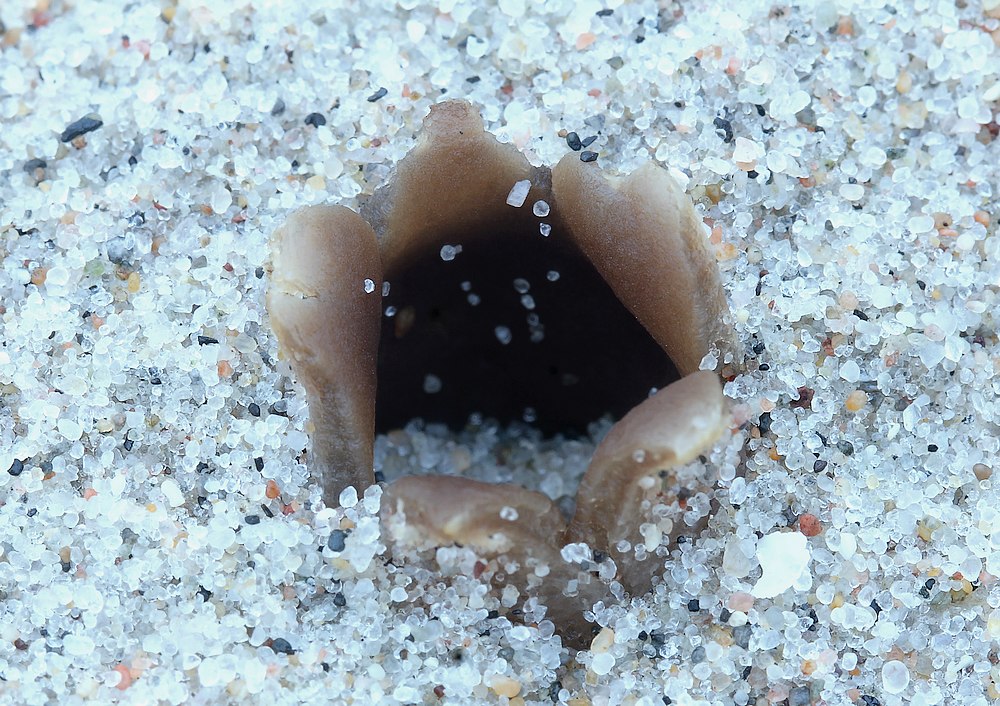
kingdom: Fungi
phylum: Ascomycota
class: Pezizomycetes
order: Pezizales
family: Pyronemataceae
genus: Lamprospora
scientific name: Lamprospora ammophila
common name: klit-bægersvamp
